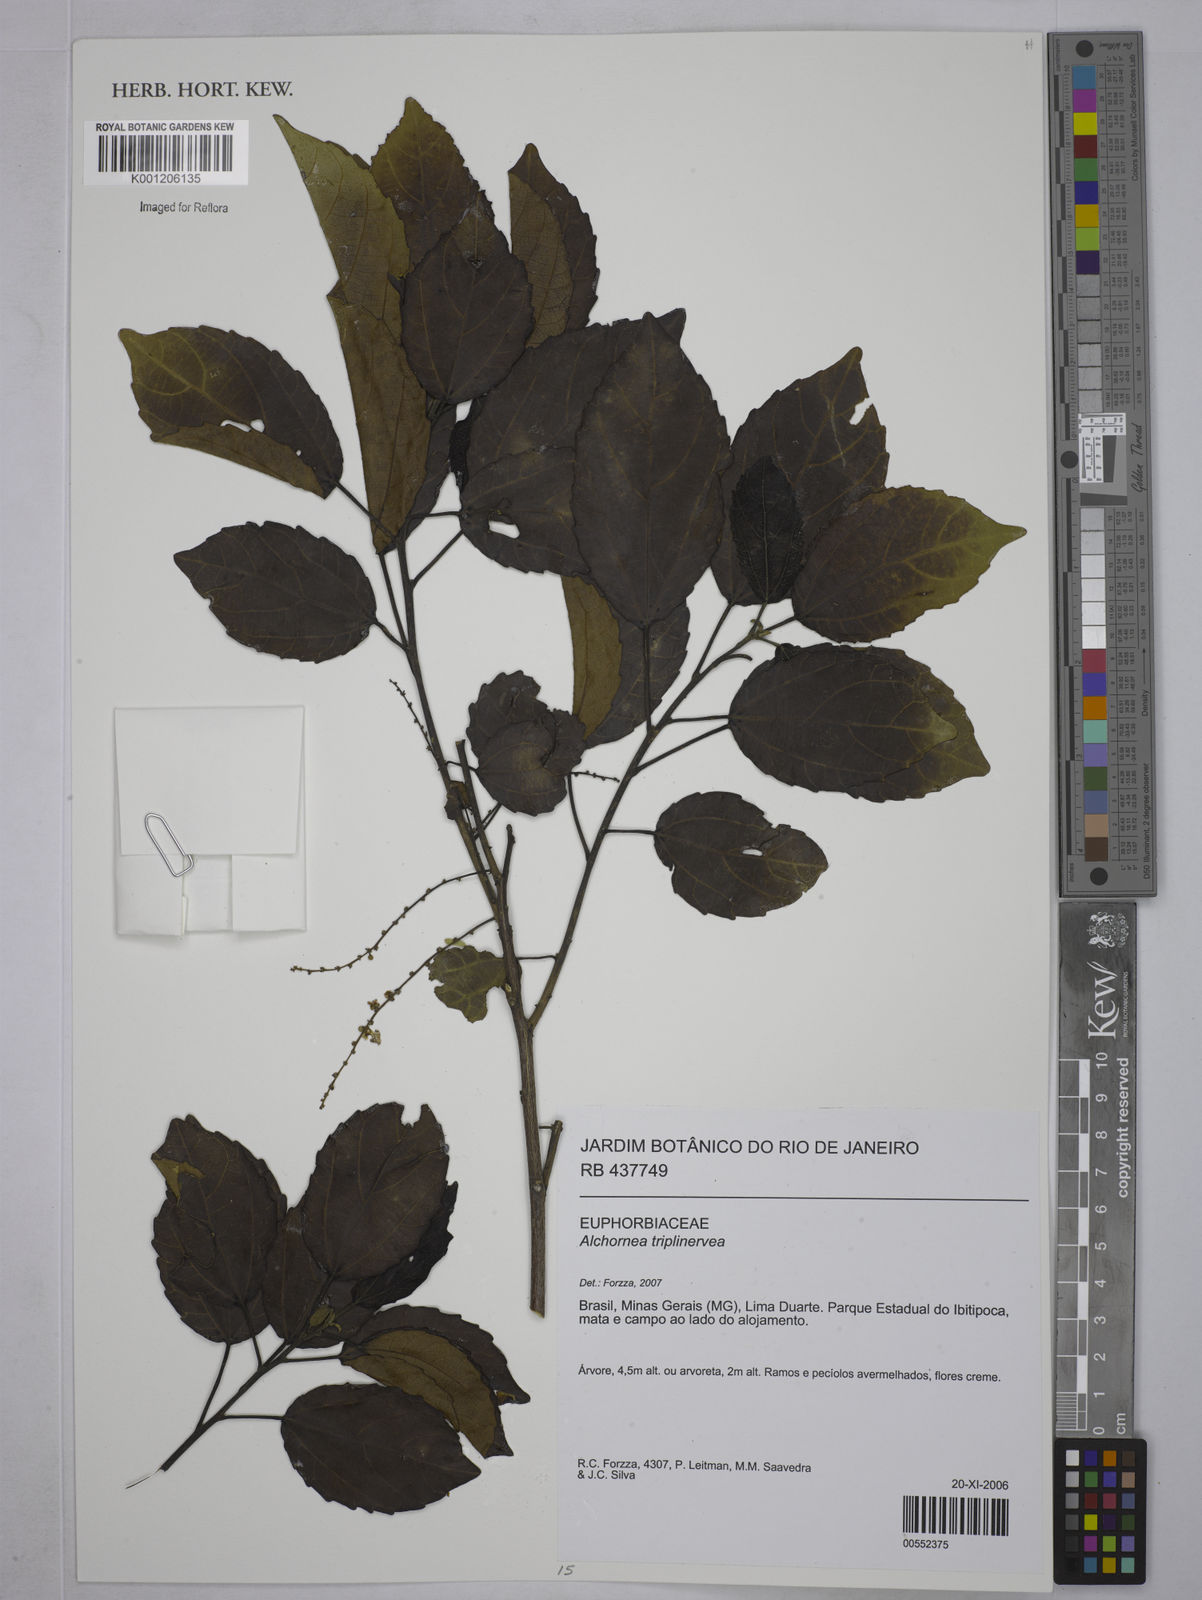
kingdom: Plantae
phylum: Tracheophyta
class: Magnoliopsida
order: Malpighiales
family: Euphorbiaceae
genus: Alchornea
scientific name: Alchornea
